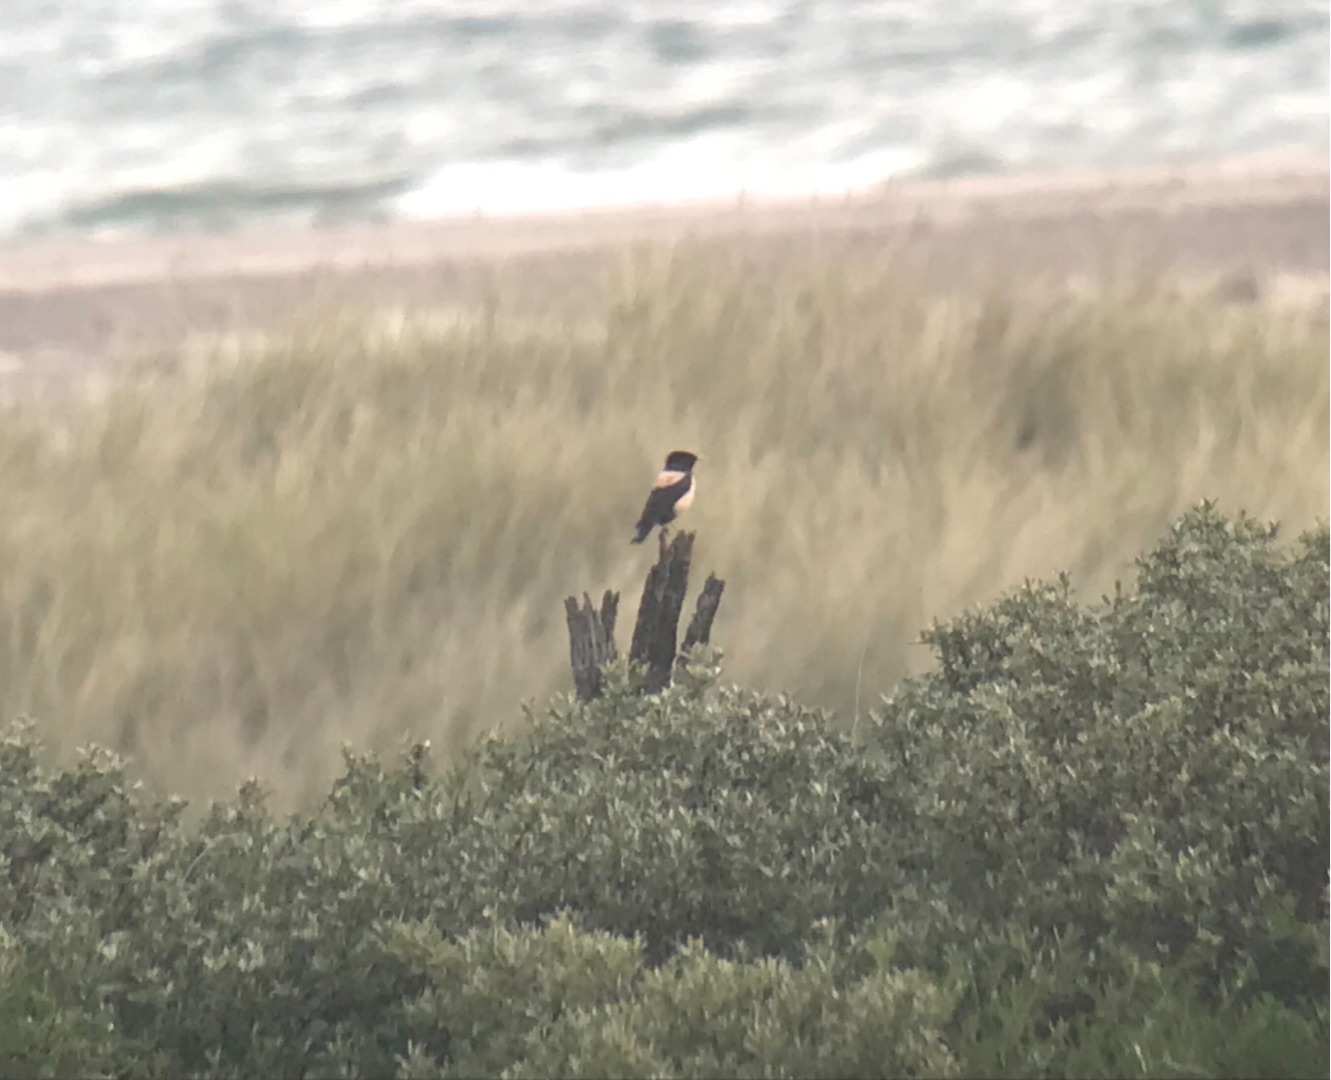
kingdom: Animalia
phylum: Chordata
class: Aves
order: Passeriformes
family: Sturnidae
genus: Pastor
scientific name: Pastor roseus
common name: Rosenstær
